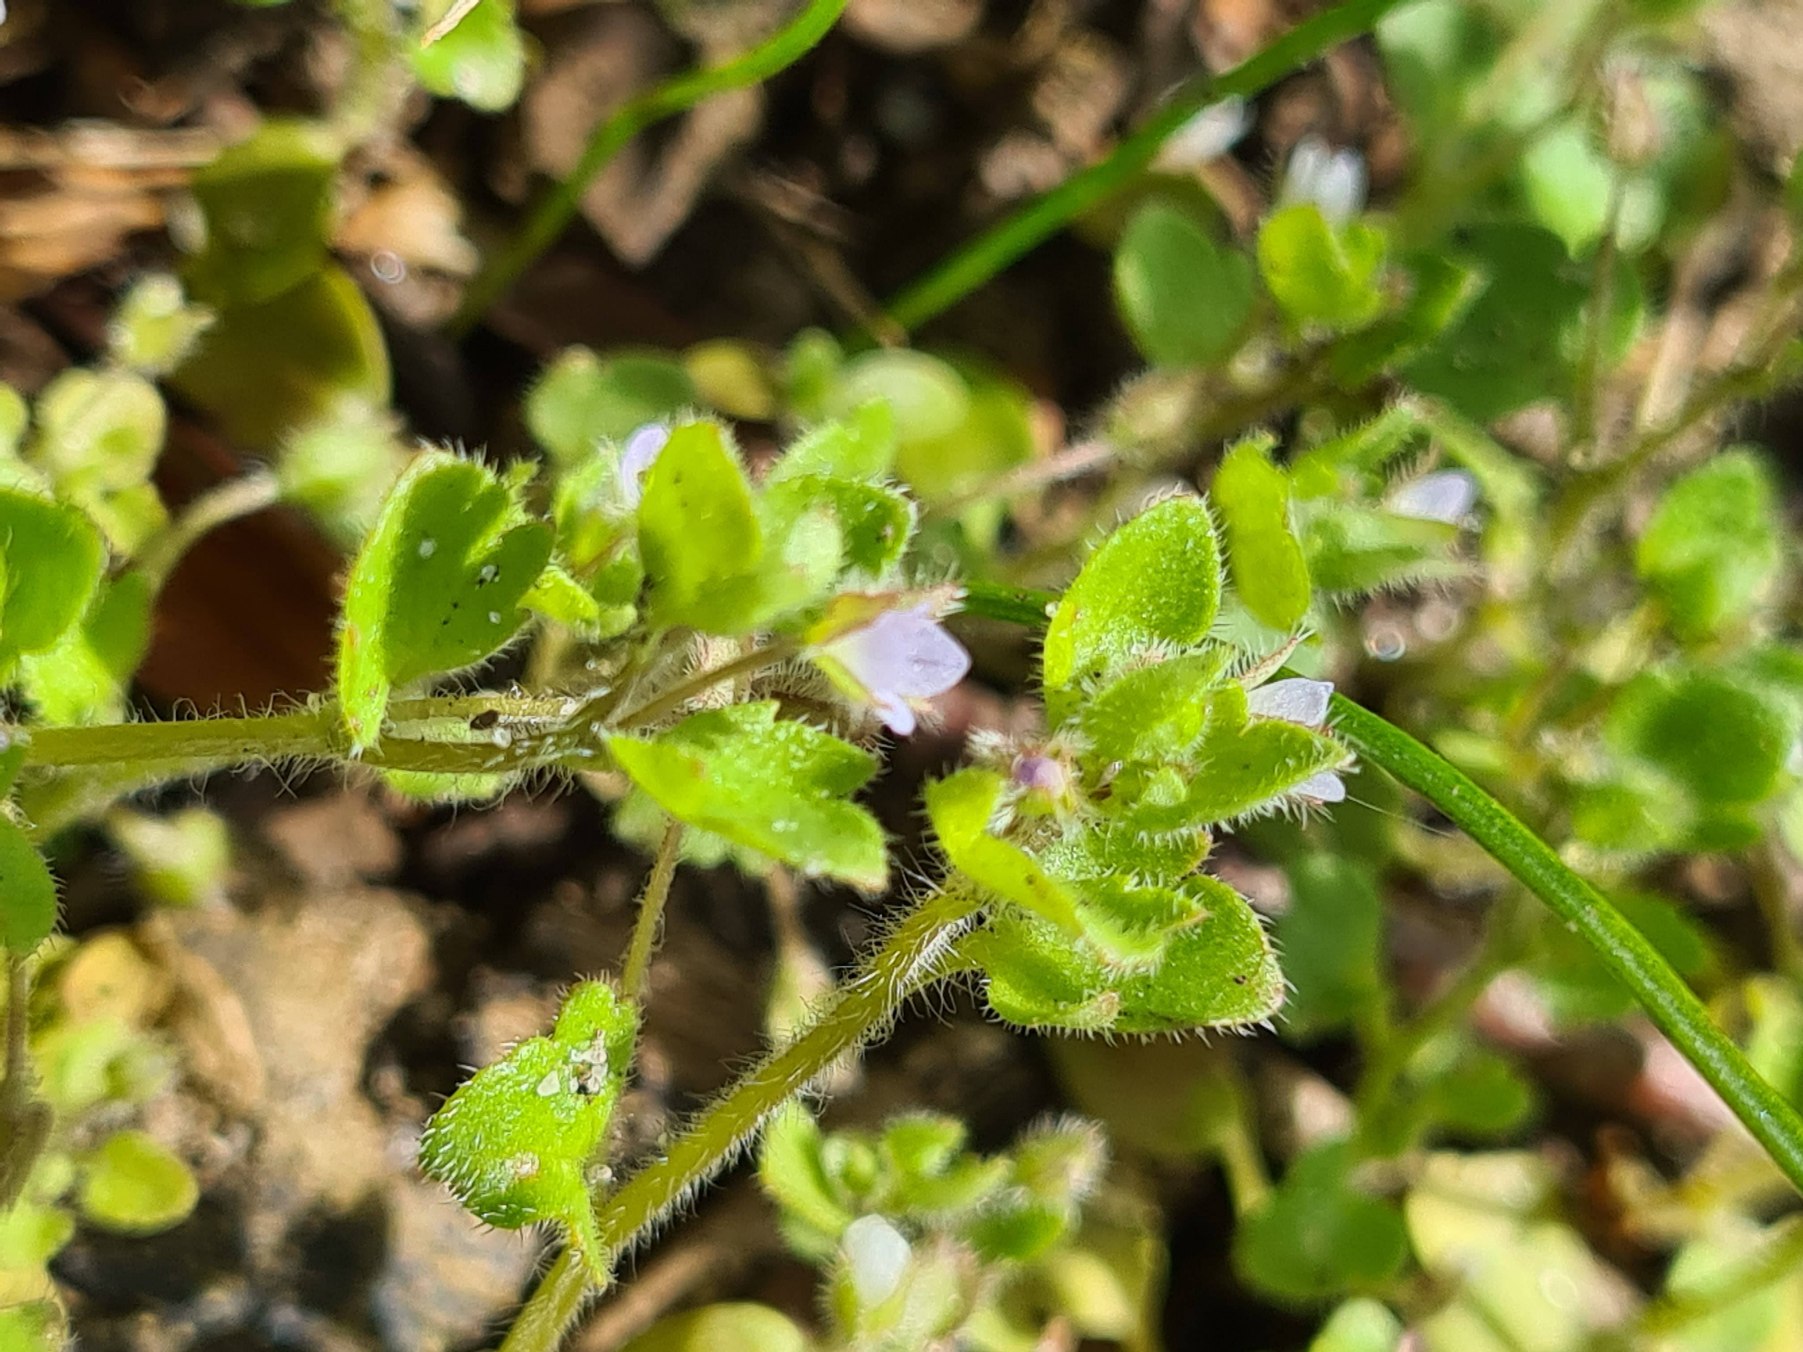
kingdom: Plantae
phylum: Tracheophyta
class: Magnoliopsida
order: Lamiales
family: Plantaginaceae
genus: Veronica
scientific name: Veronica sublobata
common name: Krat-ærenpris
